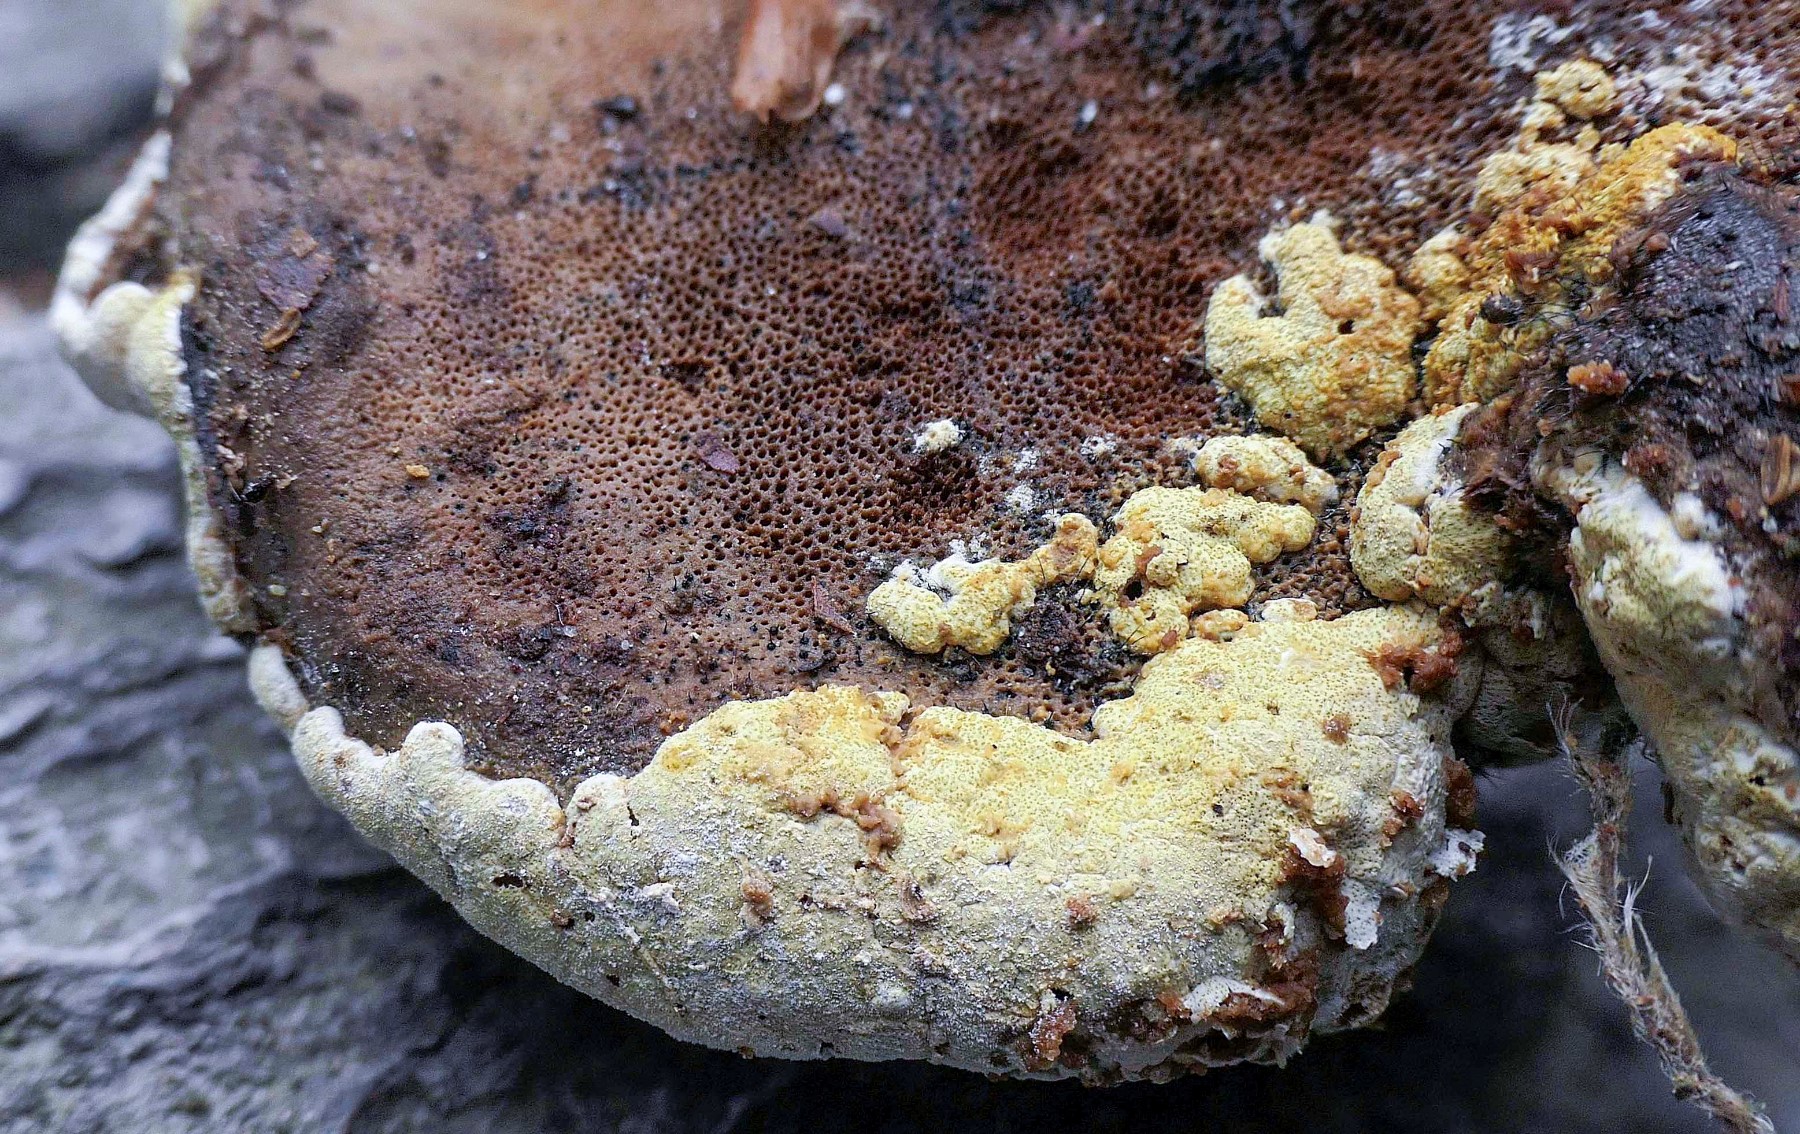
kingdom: Fungi
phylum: Ascomycota
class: Sordariomycetes
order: Hypocreales
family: Hypocreaceae
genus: Trichoderma
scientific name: Trichoderma pulvinatum
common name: snyltende kødkerne
